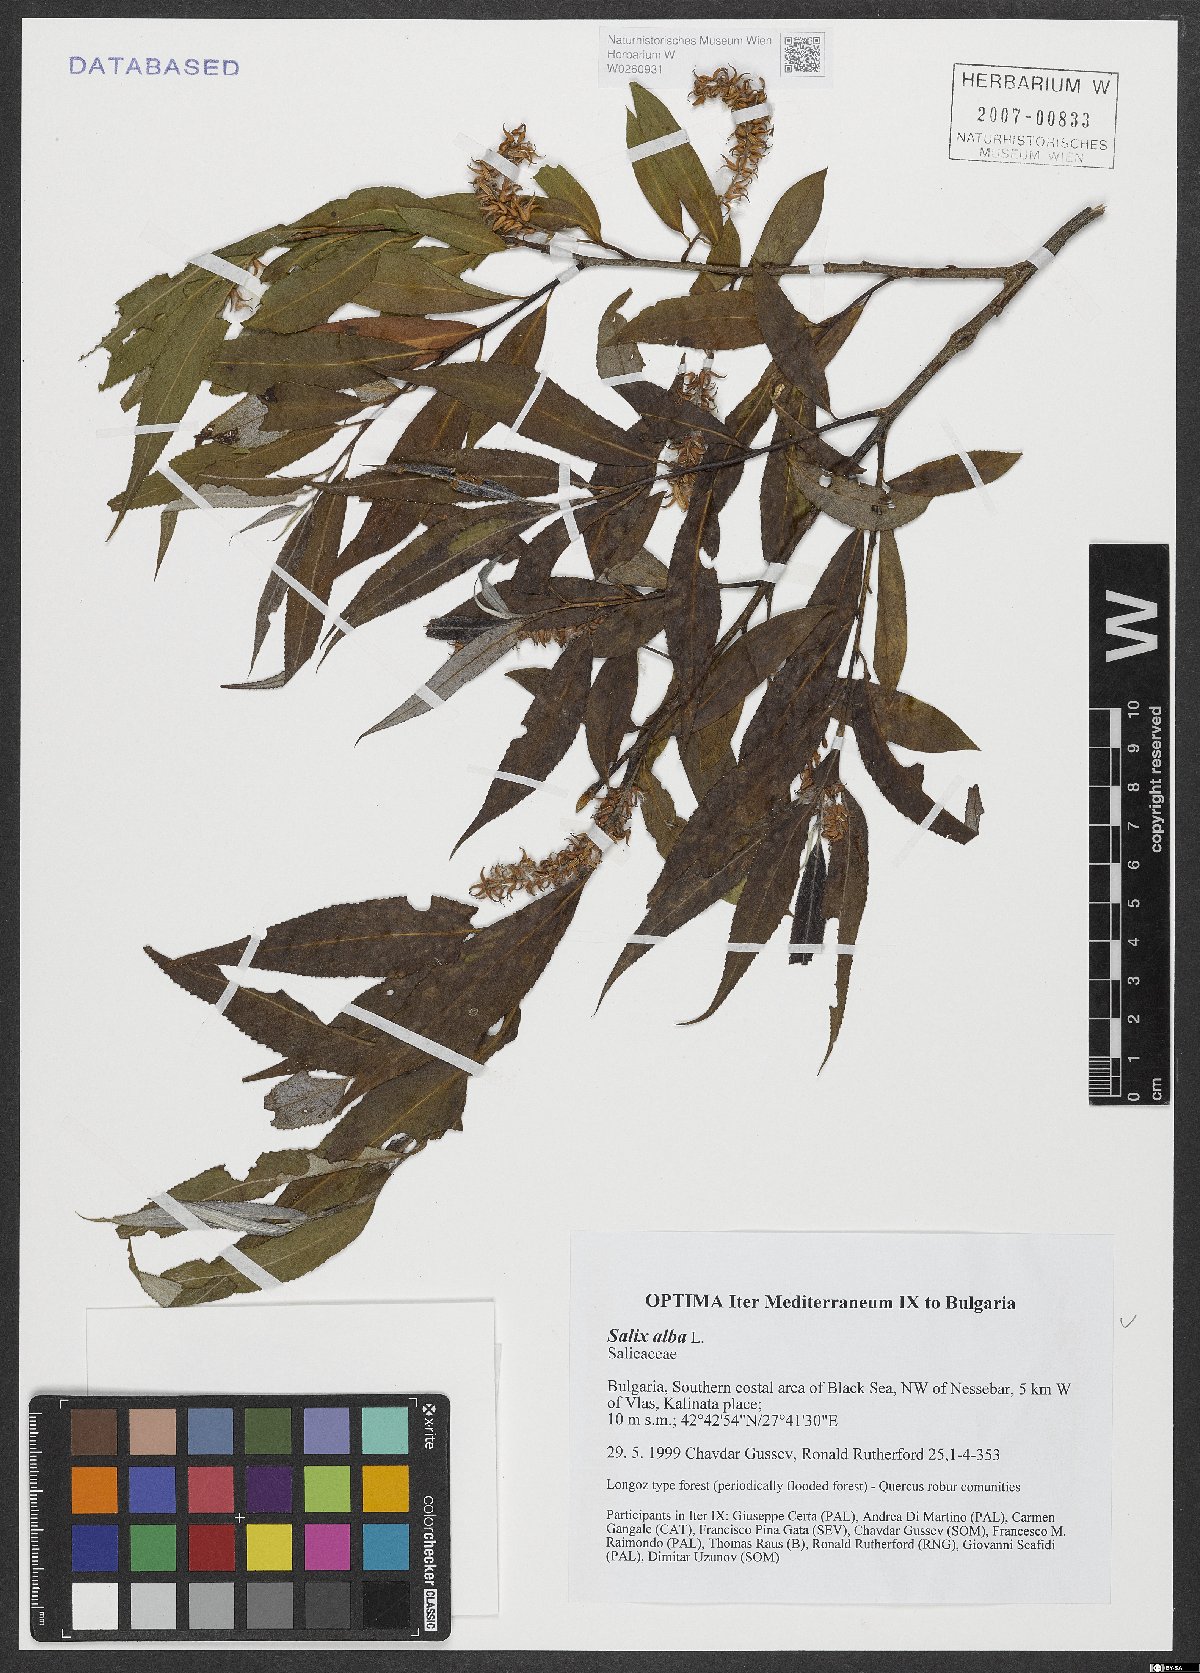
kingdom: Plantae
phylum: Tracheophyta
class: Magnoliopsida
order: Malpighiales
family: Salicaceae
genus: Salix
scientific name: Salix alba
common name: White willow
